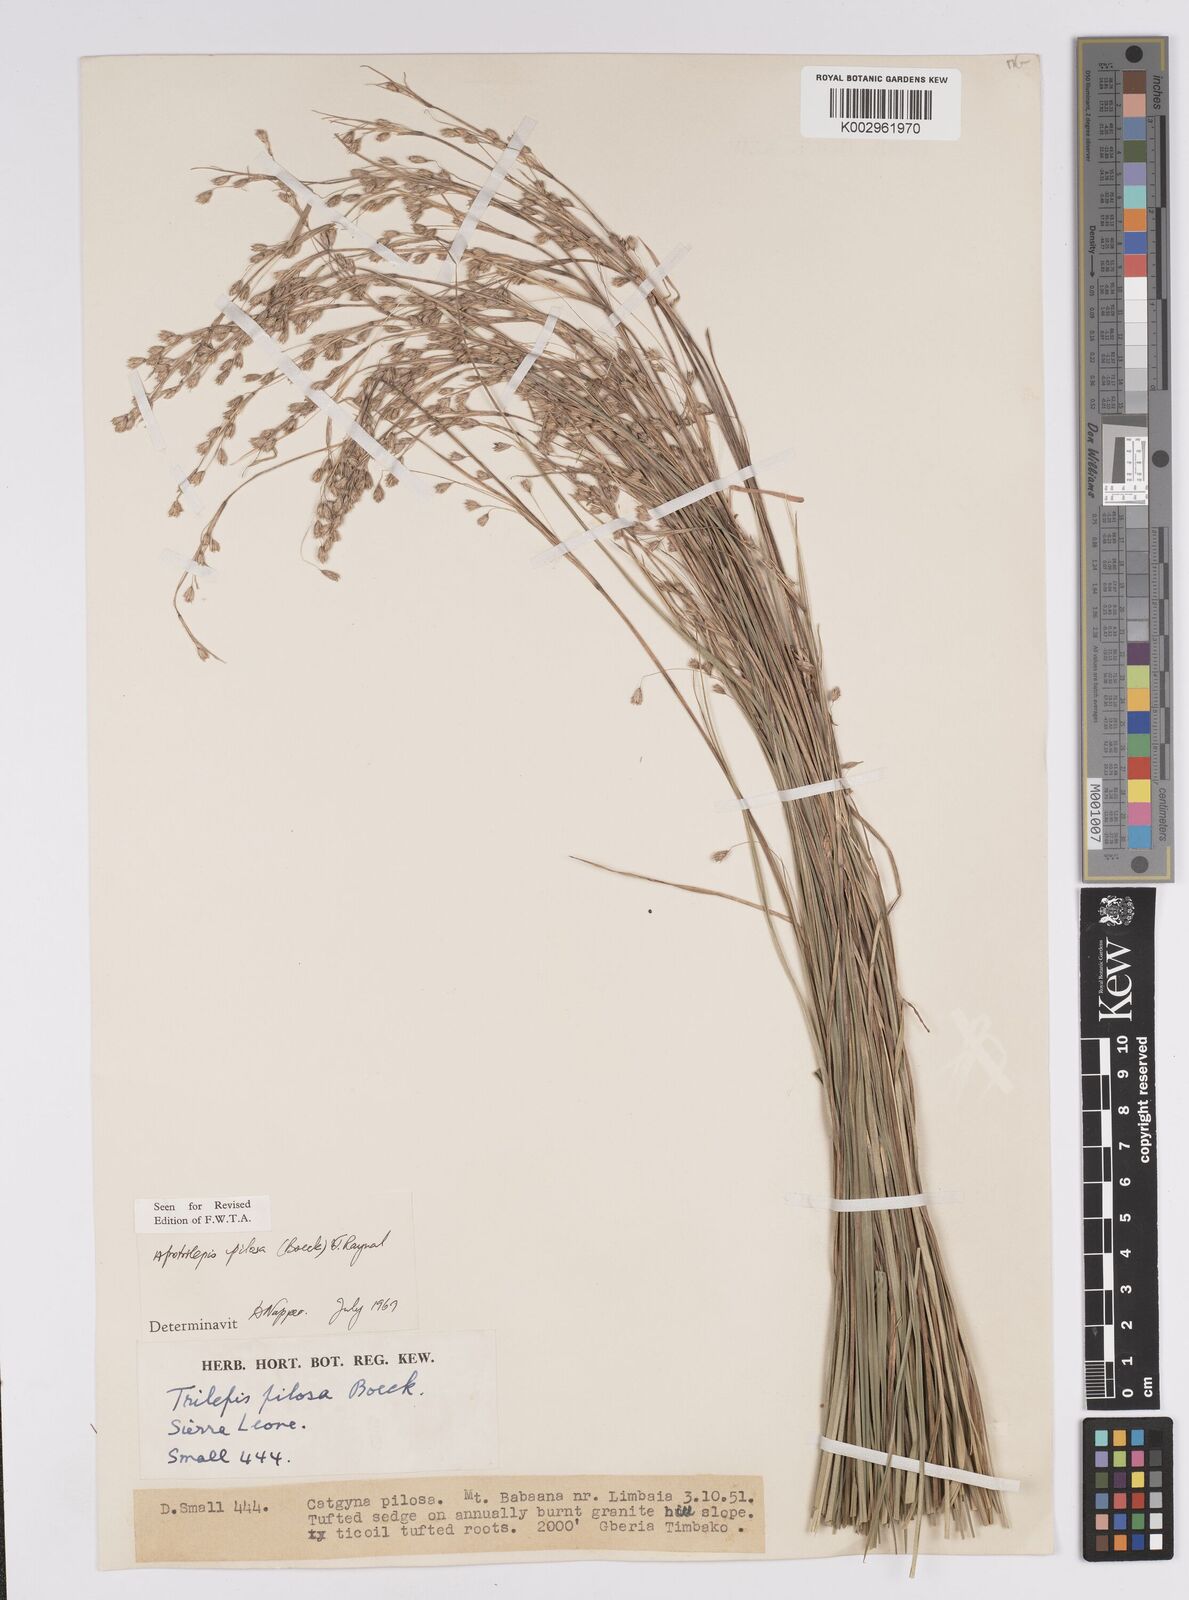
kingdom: Plantae
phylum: Tracheophyta
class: Liliopsida
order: Poales
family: Cyperaceae
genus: Afrotrilepis
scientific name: Afrotrilepis pilosa
